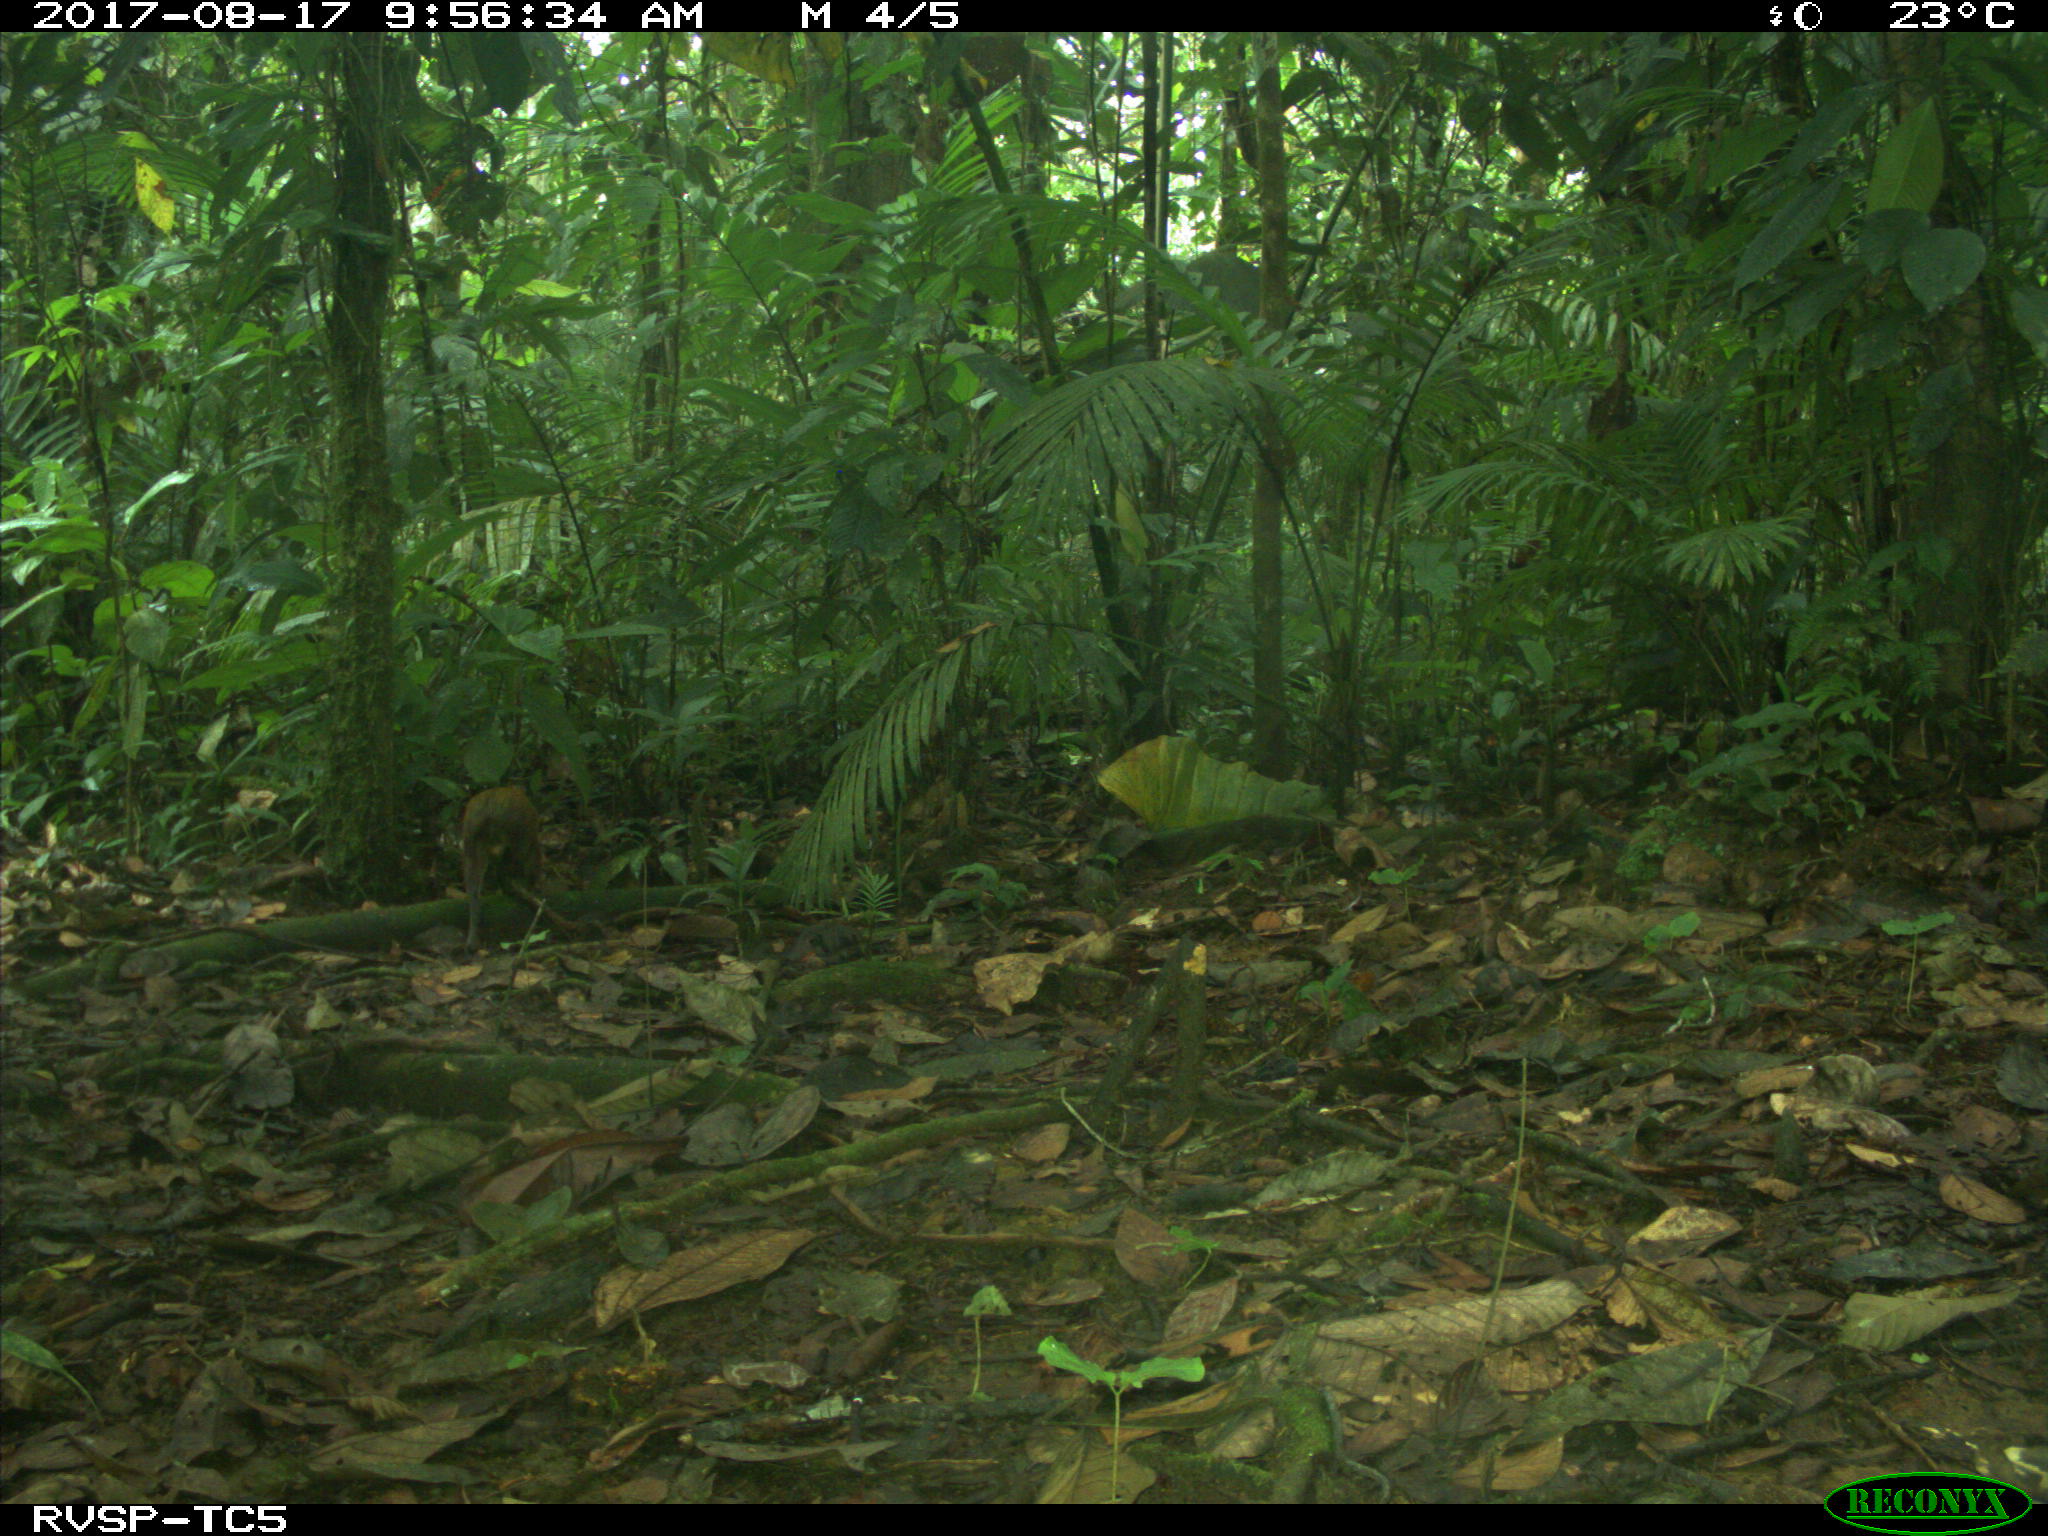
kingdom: Animalia
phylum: Chordata
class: Mammalia
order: Rodentia
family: Dasyproctidae
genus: Dasyprocta
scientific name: Dasyprocta punctata
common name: Central american agouti
